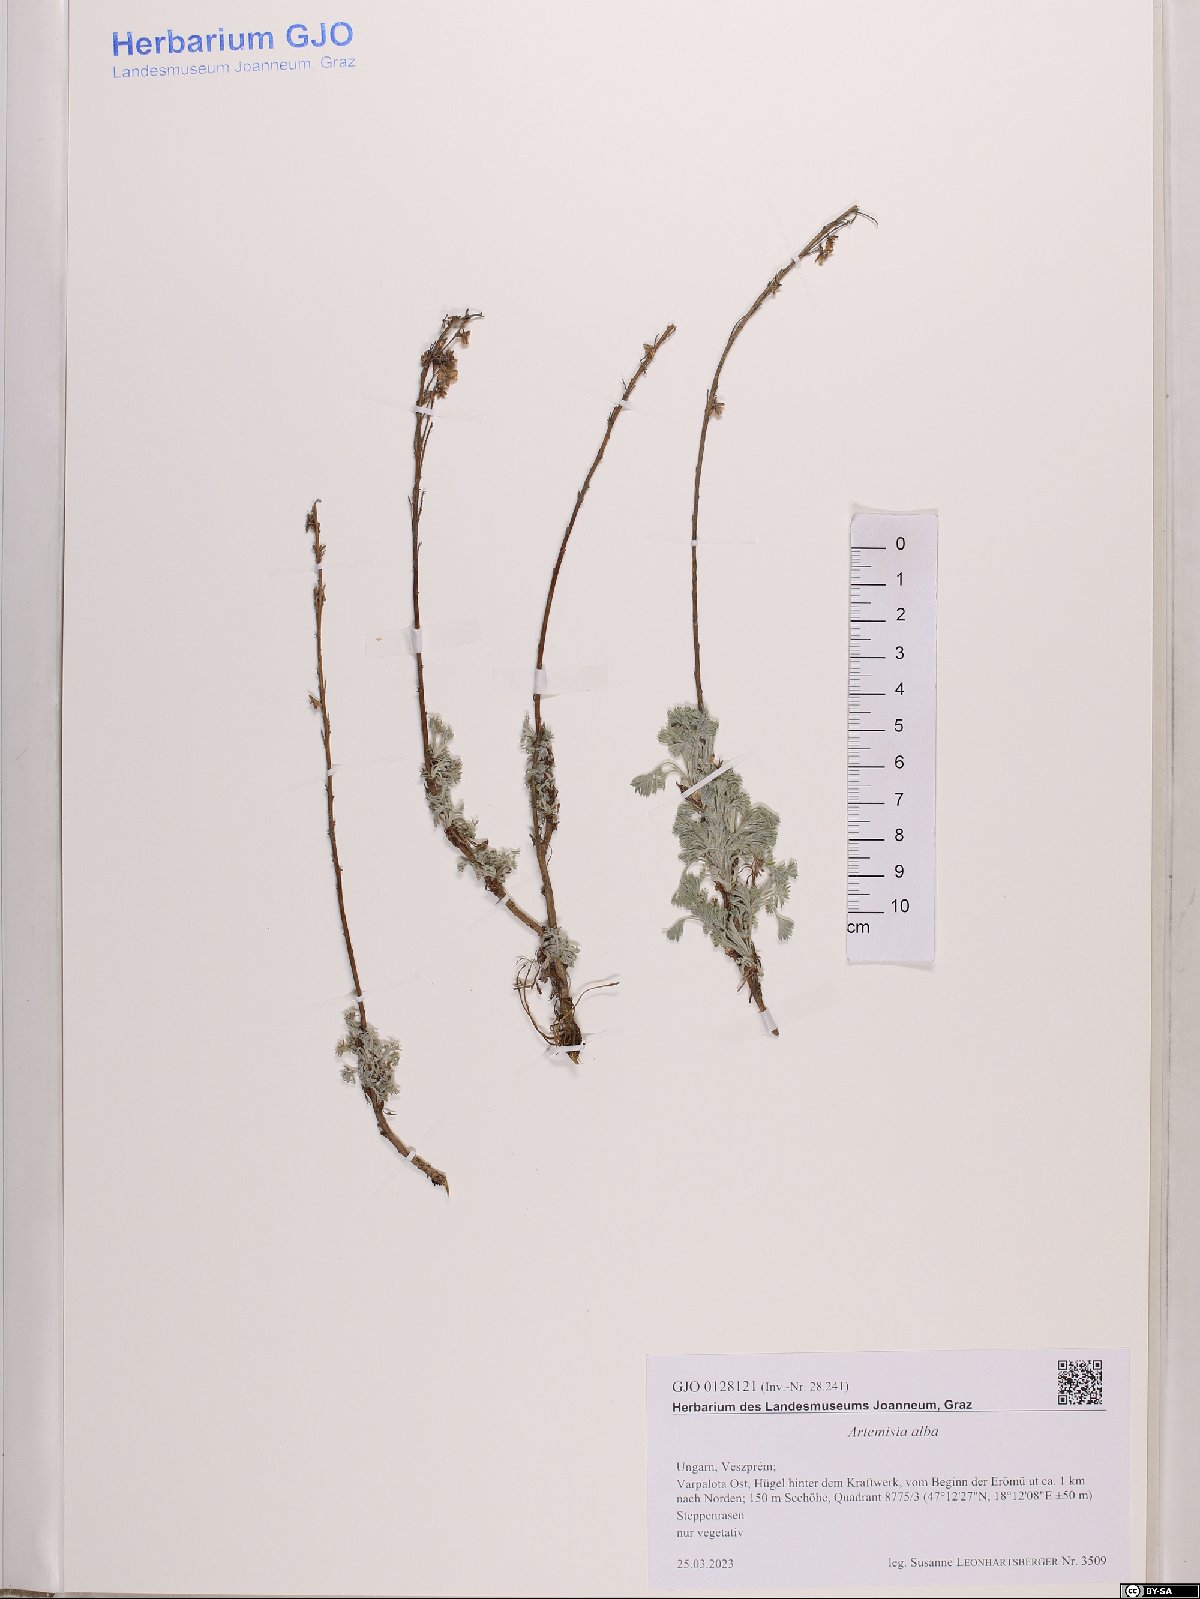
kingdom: Plantae
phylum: Tracheophyta
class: Magnoliopsida
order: Asterales
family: Asteraceae
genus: Artemisia
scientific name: Artemisia alba
